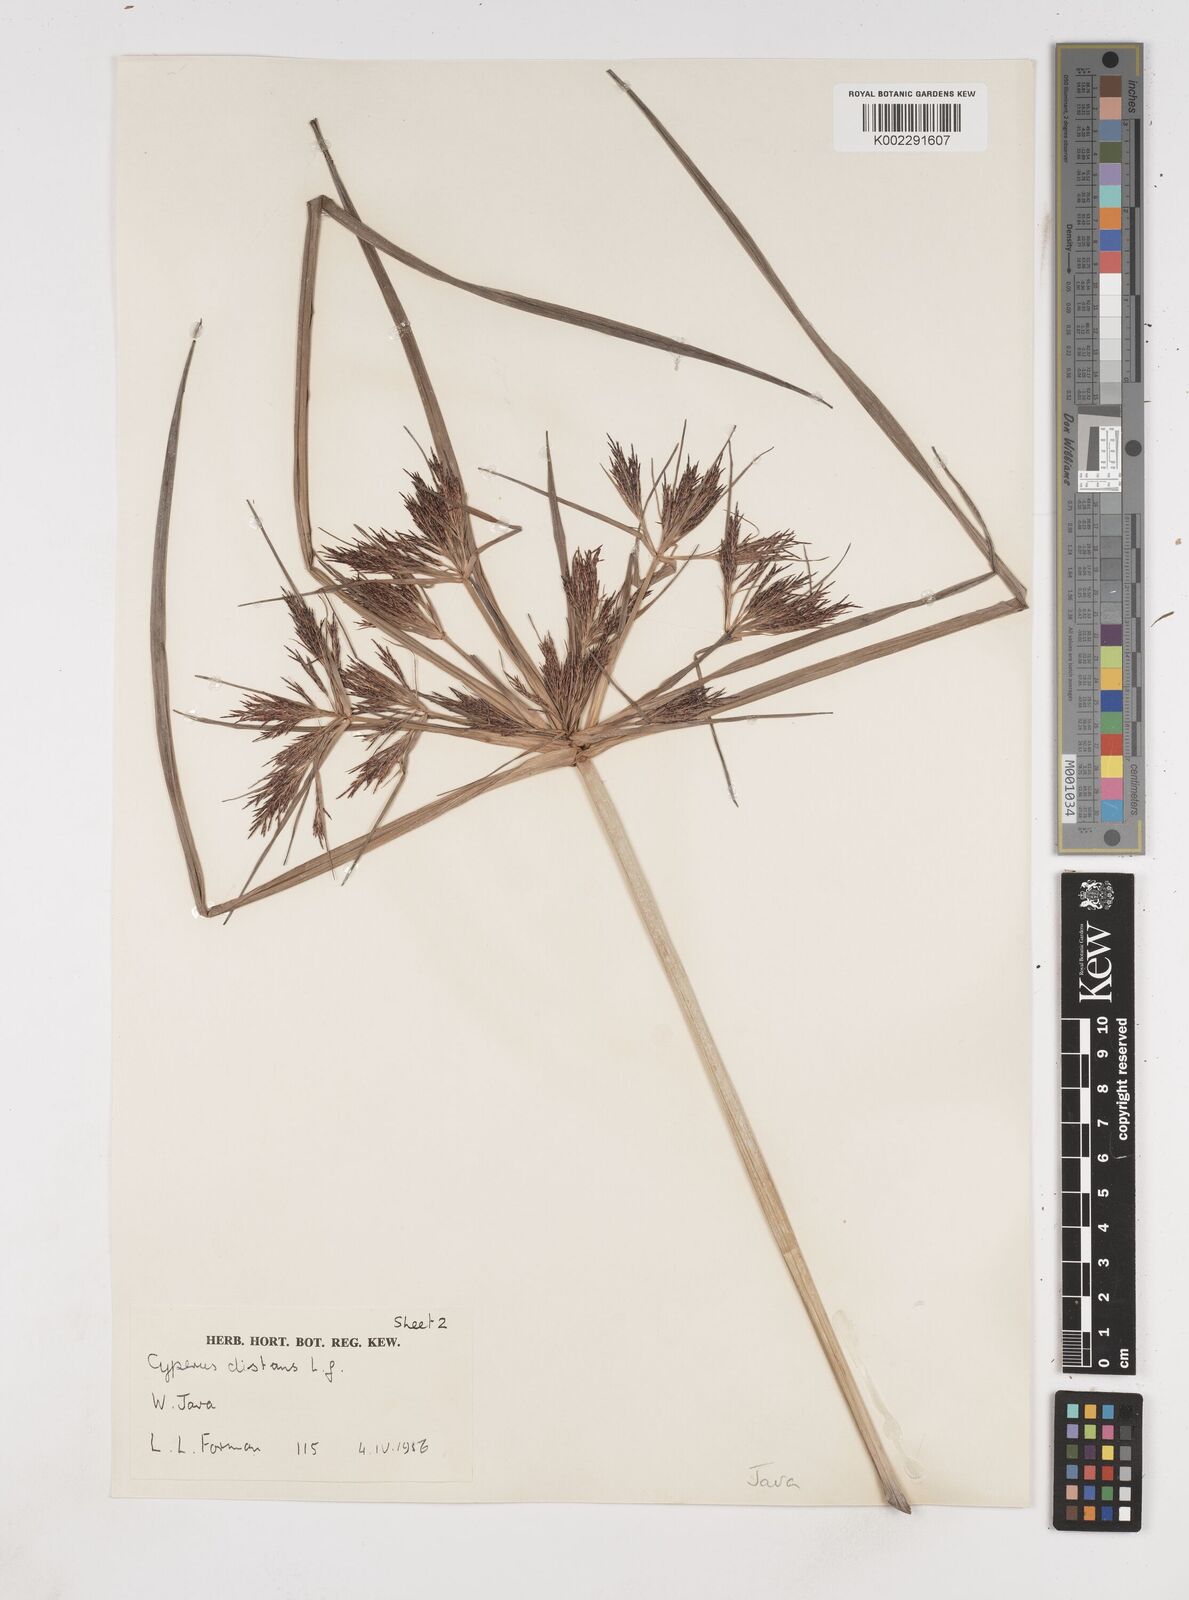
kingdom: Plantae
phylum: Tracheophyta
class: Liliopsida
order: Poales
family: Cyperaceae
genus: Cyperus
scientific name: Cyperus distans
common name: Slender cyperus
